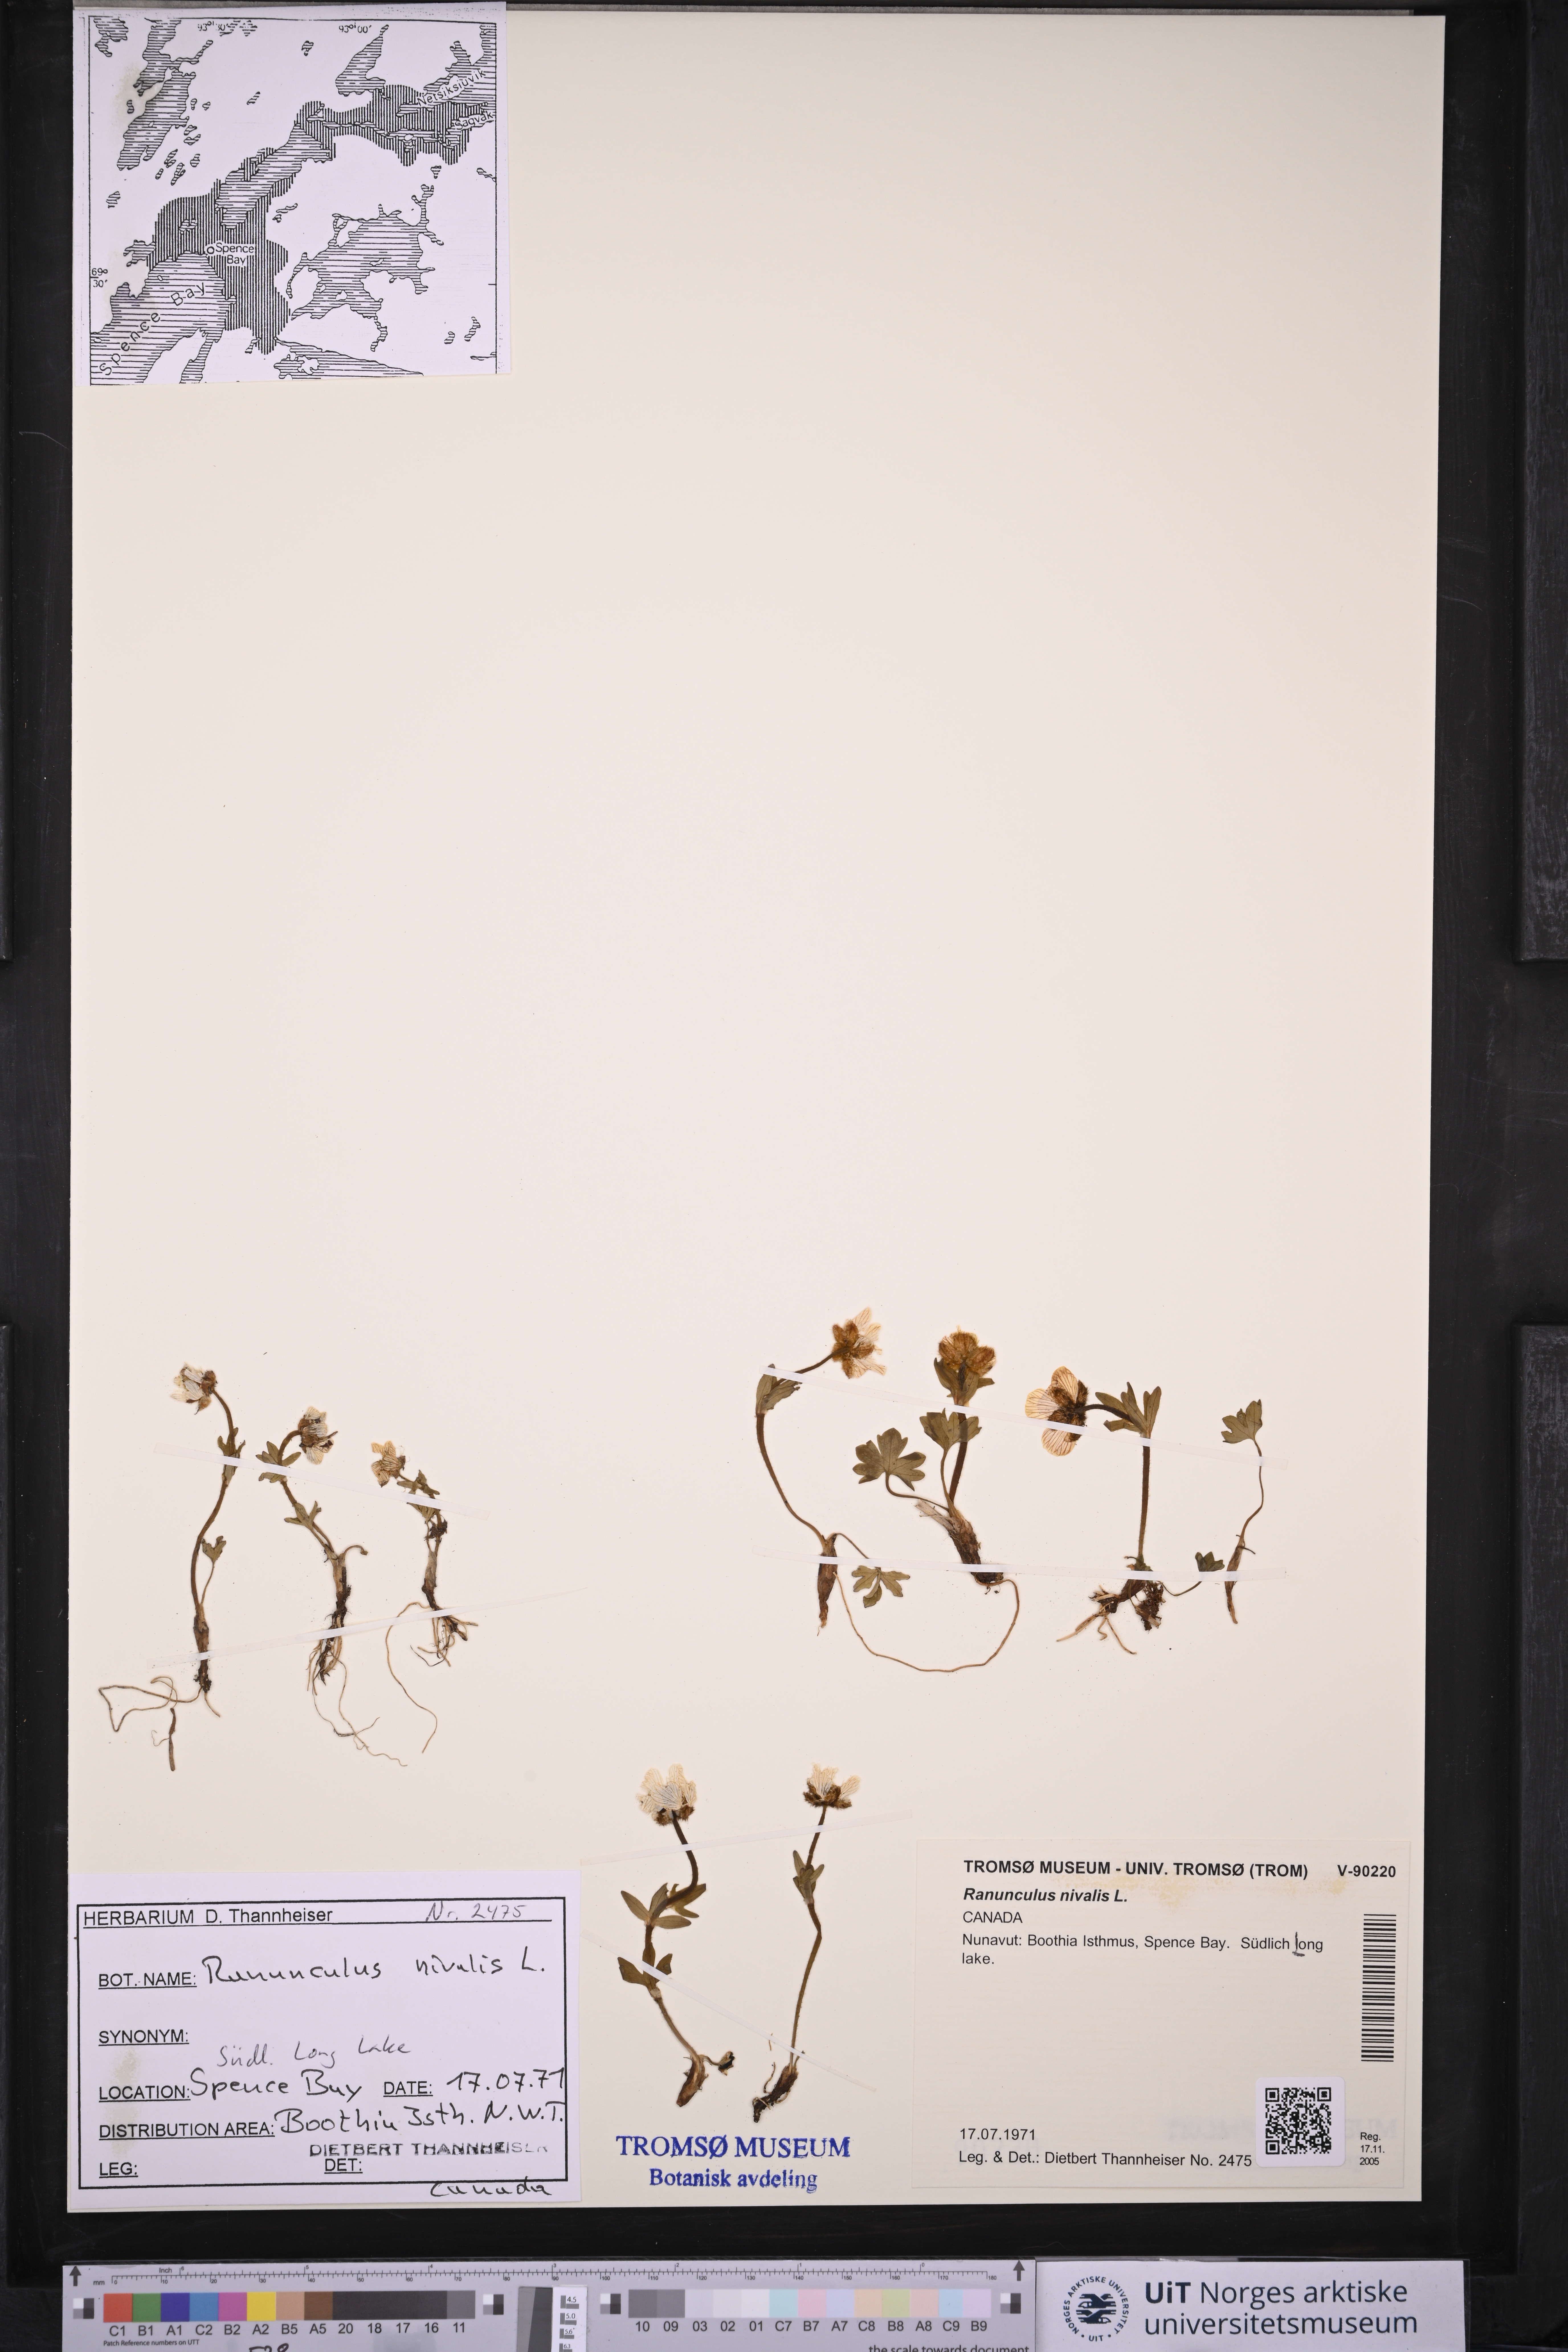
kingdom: Plantae
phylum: Tracheophyta
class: Magnoliopsida
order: Ranunculales
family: Ranunculaceae
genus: Ranunculus
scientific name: Ranunculus nivalis
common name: Snow buttercup
